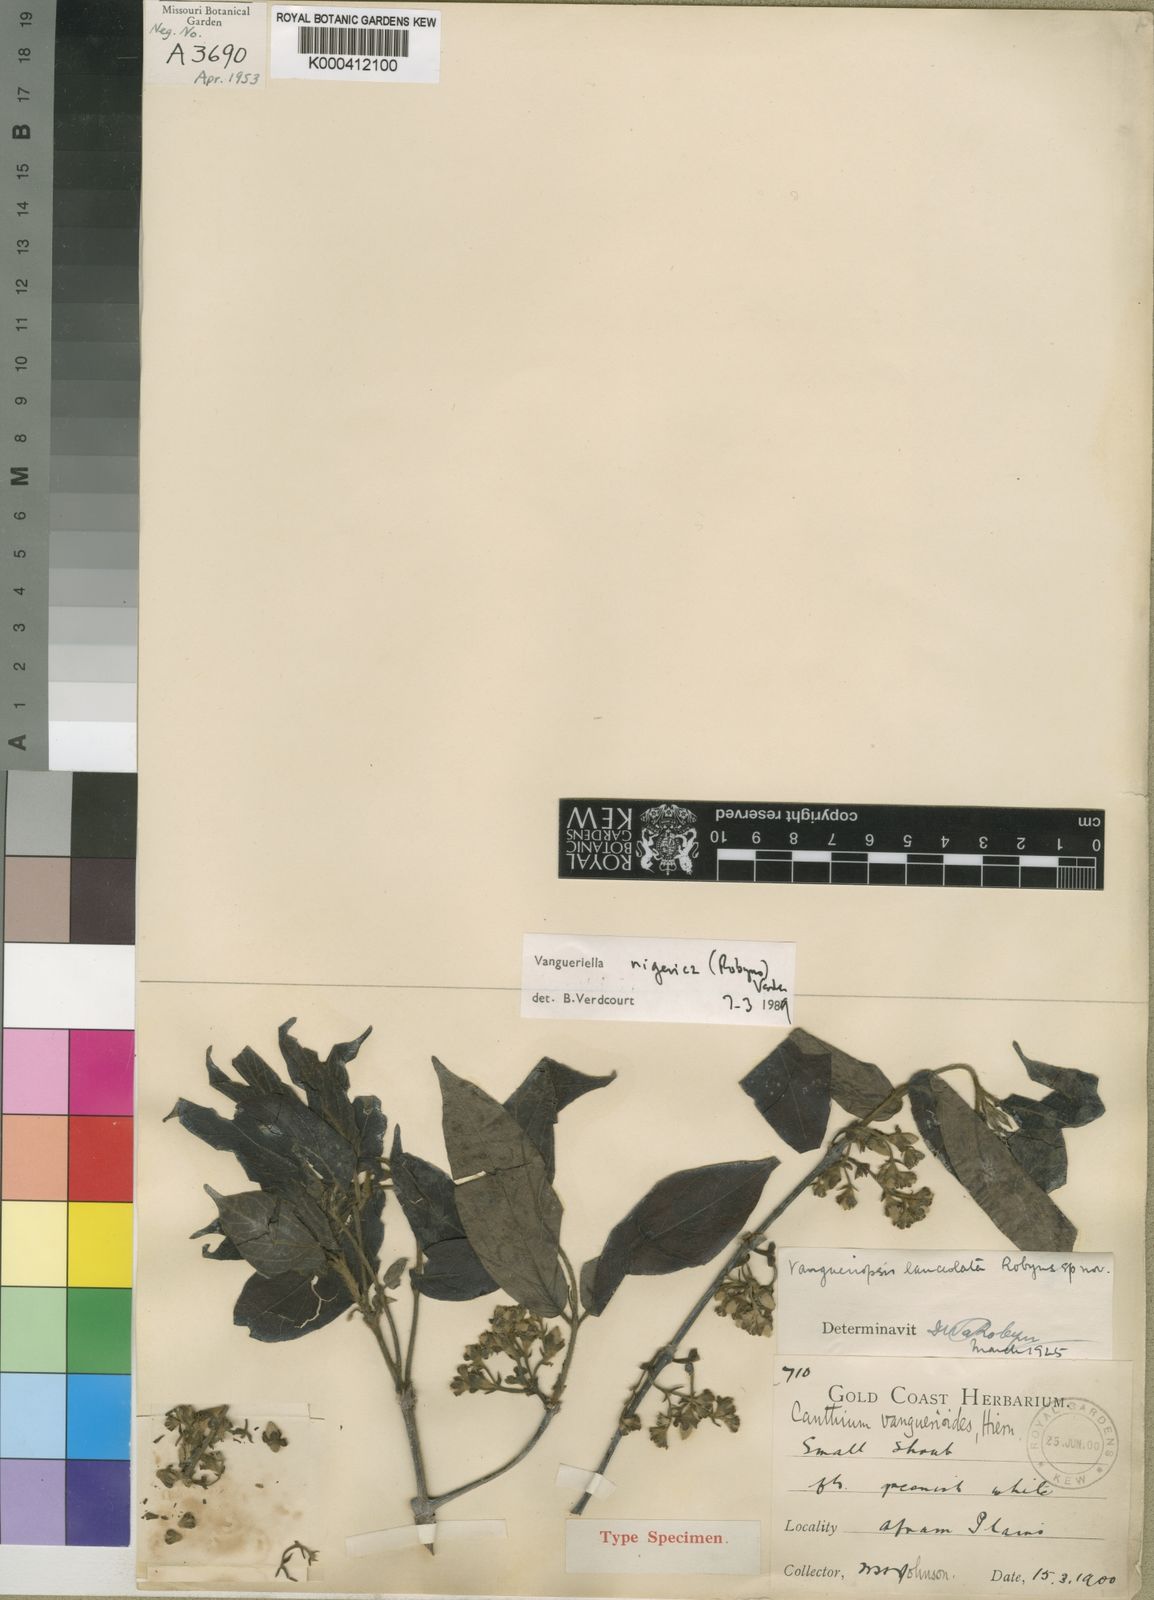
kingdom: Plantae
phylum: Tracheophyta
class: Magnoliopsida
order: Gentianales
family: Rubiaceae
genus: Vangueriella
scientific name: Vangueriella nigerica
